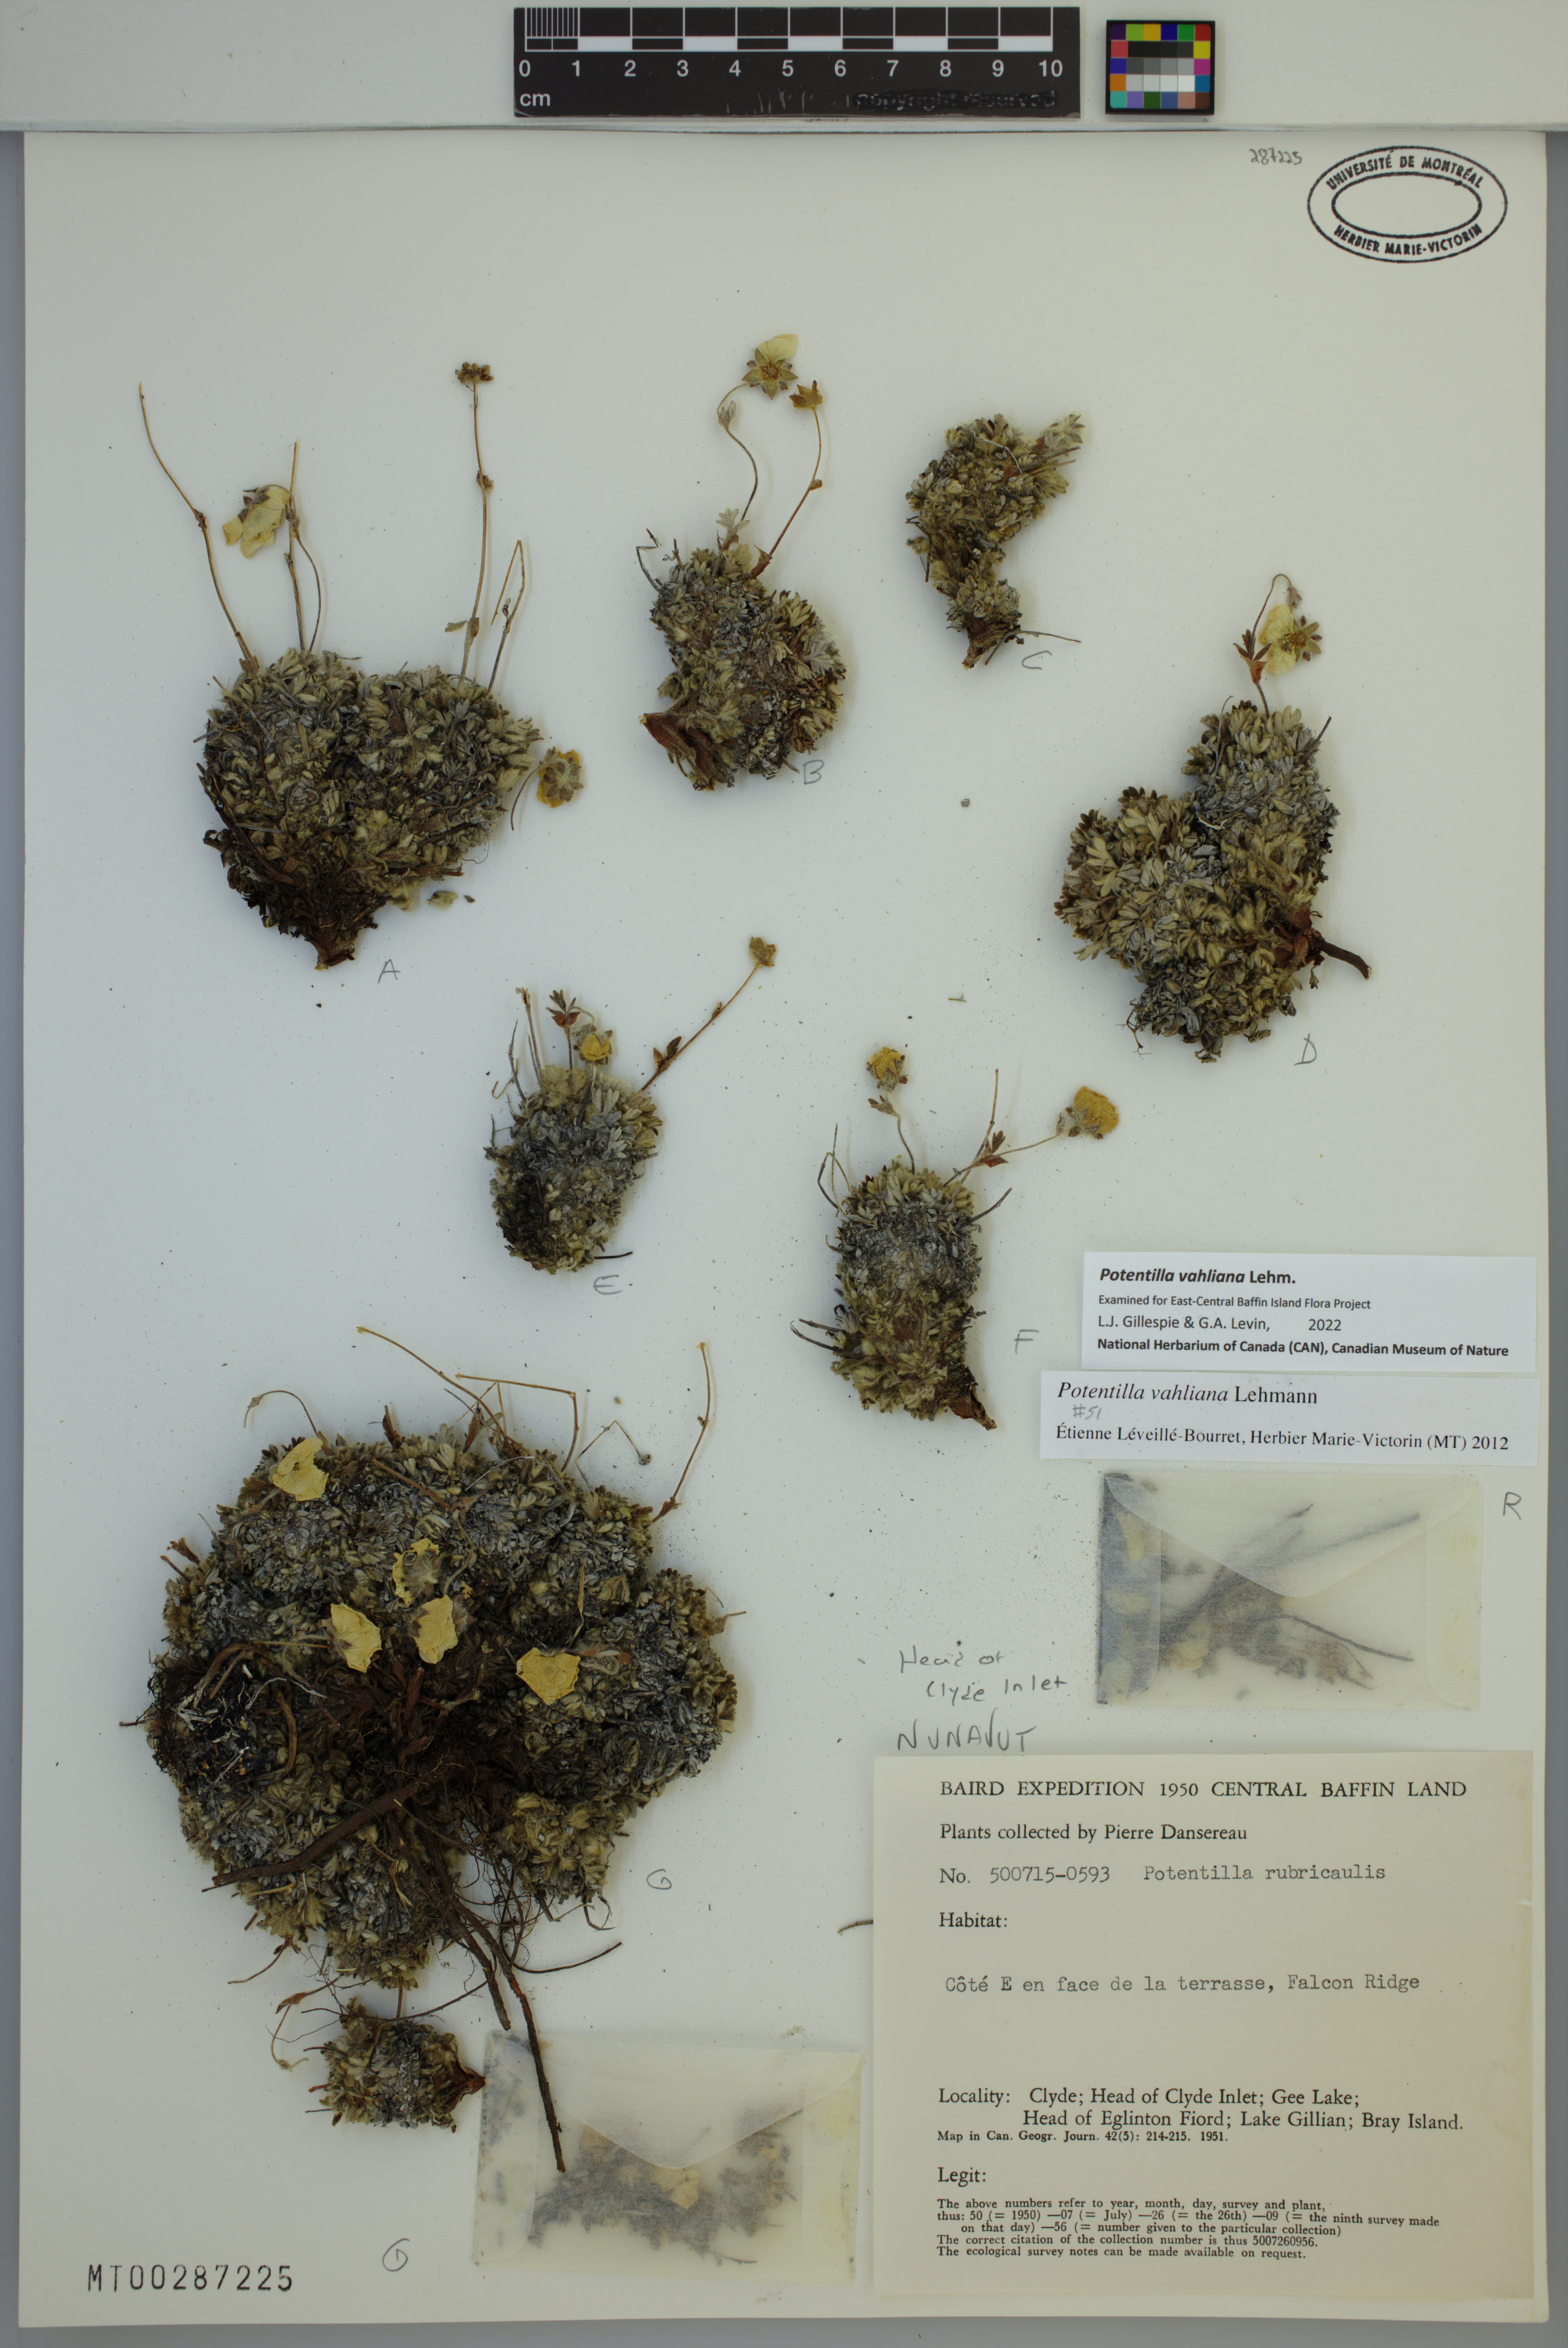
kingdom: Plantae
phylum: Tracheophyta
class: Magnoliopsida
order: Rosales
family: Rosaceae
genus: Potentilla
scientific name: Potentilla vahliana
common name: Vahl's cinquefoil
